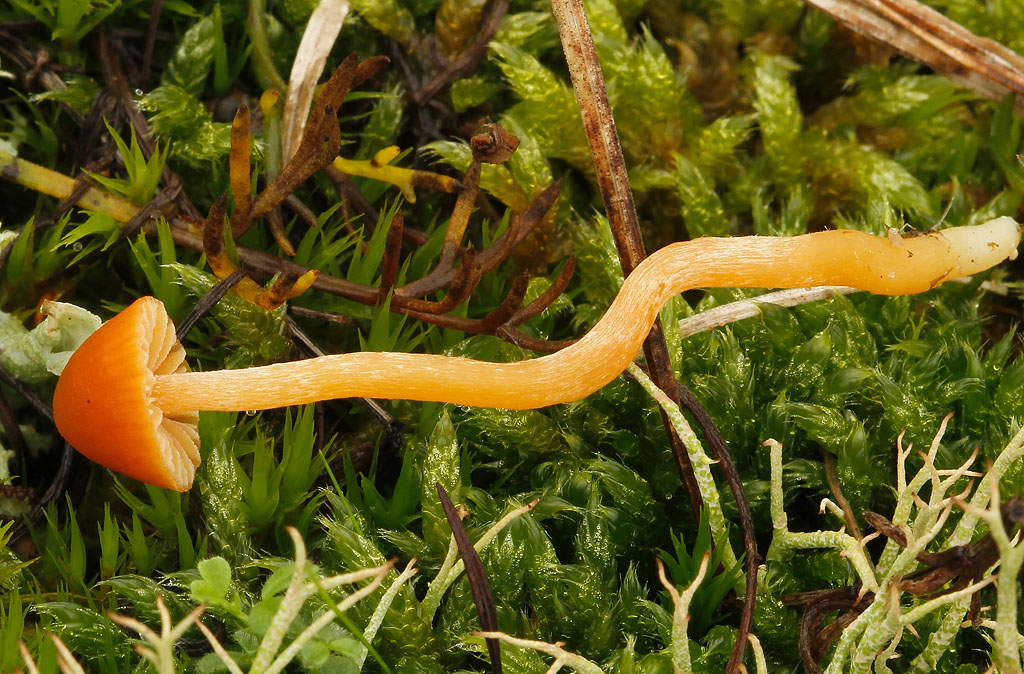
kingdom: Fungi
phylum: Basidiomycota
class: Agaricomycetes
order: Agaricales
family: Hymenogastraceae
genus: Galerina
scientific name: Galerina calyptrata
